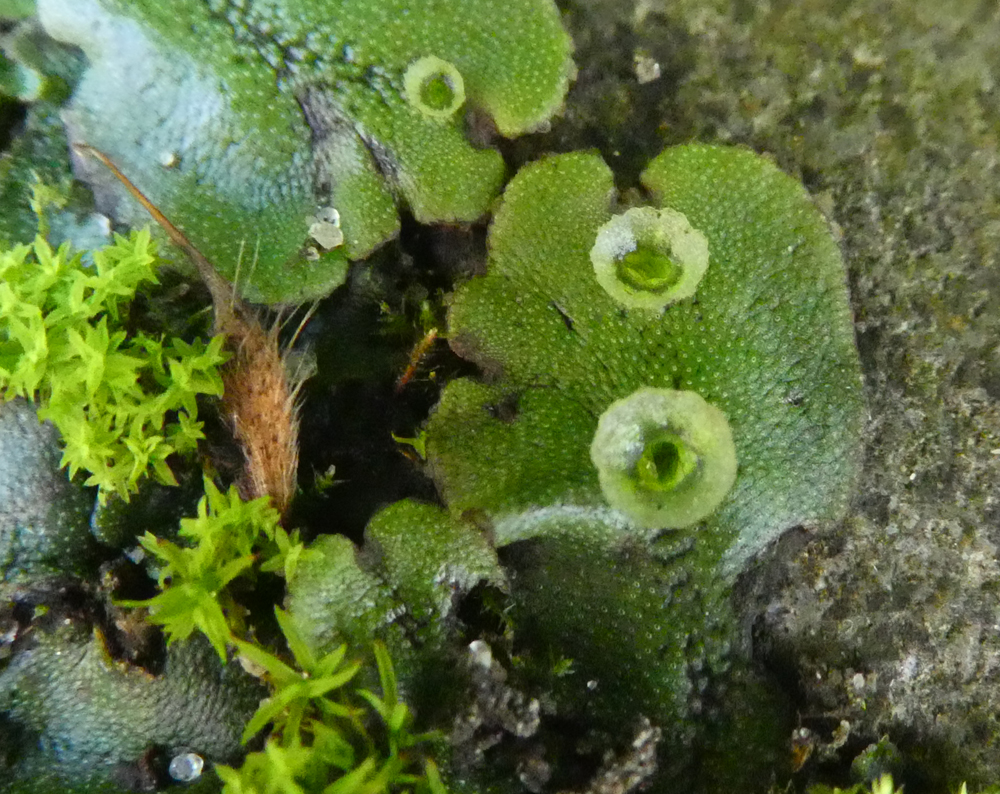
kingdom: Plantae
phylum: Marchantiophyta
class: Marchantiopsida
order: Marchantiales
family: Marchantiaceae
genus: Marchantia
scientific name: Marchantia polymorpha
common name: Common liverwort
